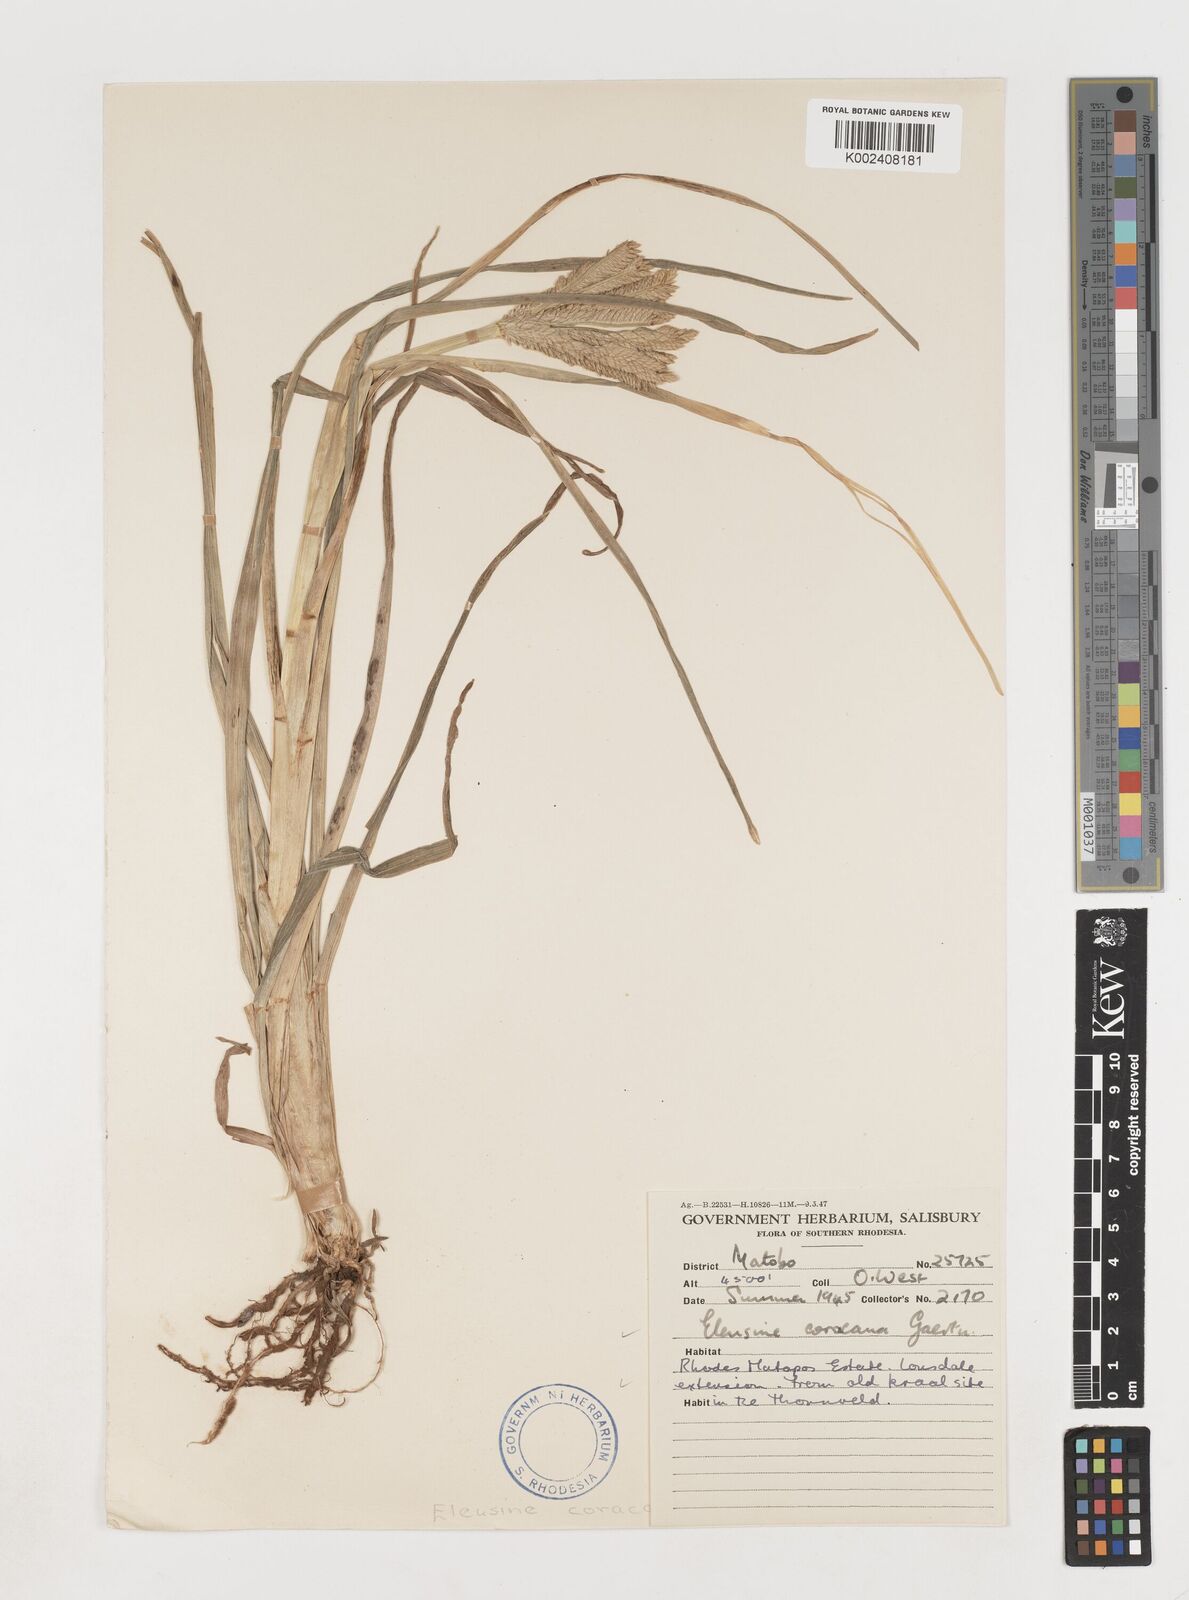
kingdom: Plantae
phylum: Tracheophyta
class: Liliopsida
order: Poales
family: Poaceae
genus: Eleusine
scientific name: Eleusine coracana
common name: Finger millet
